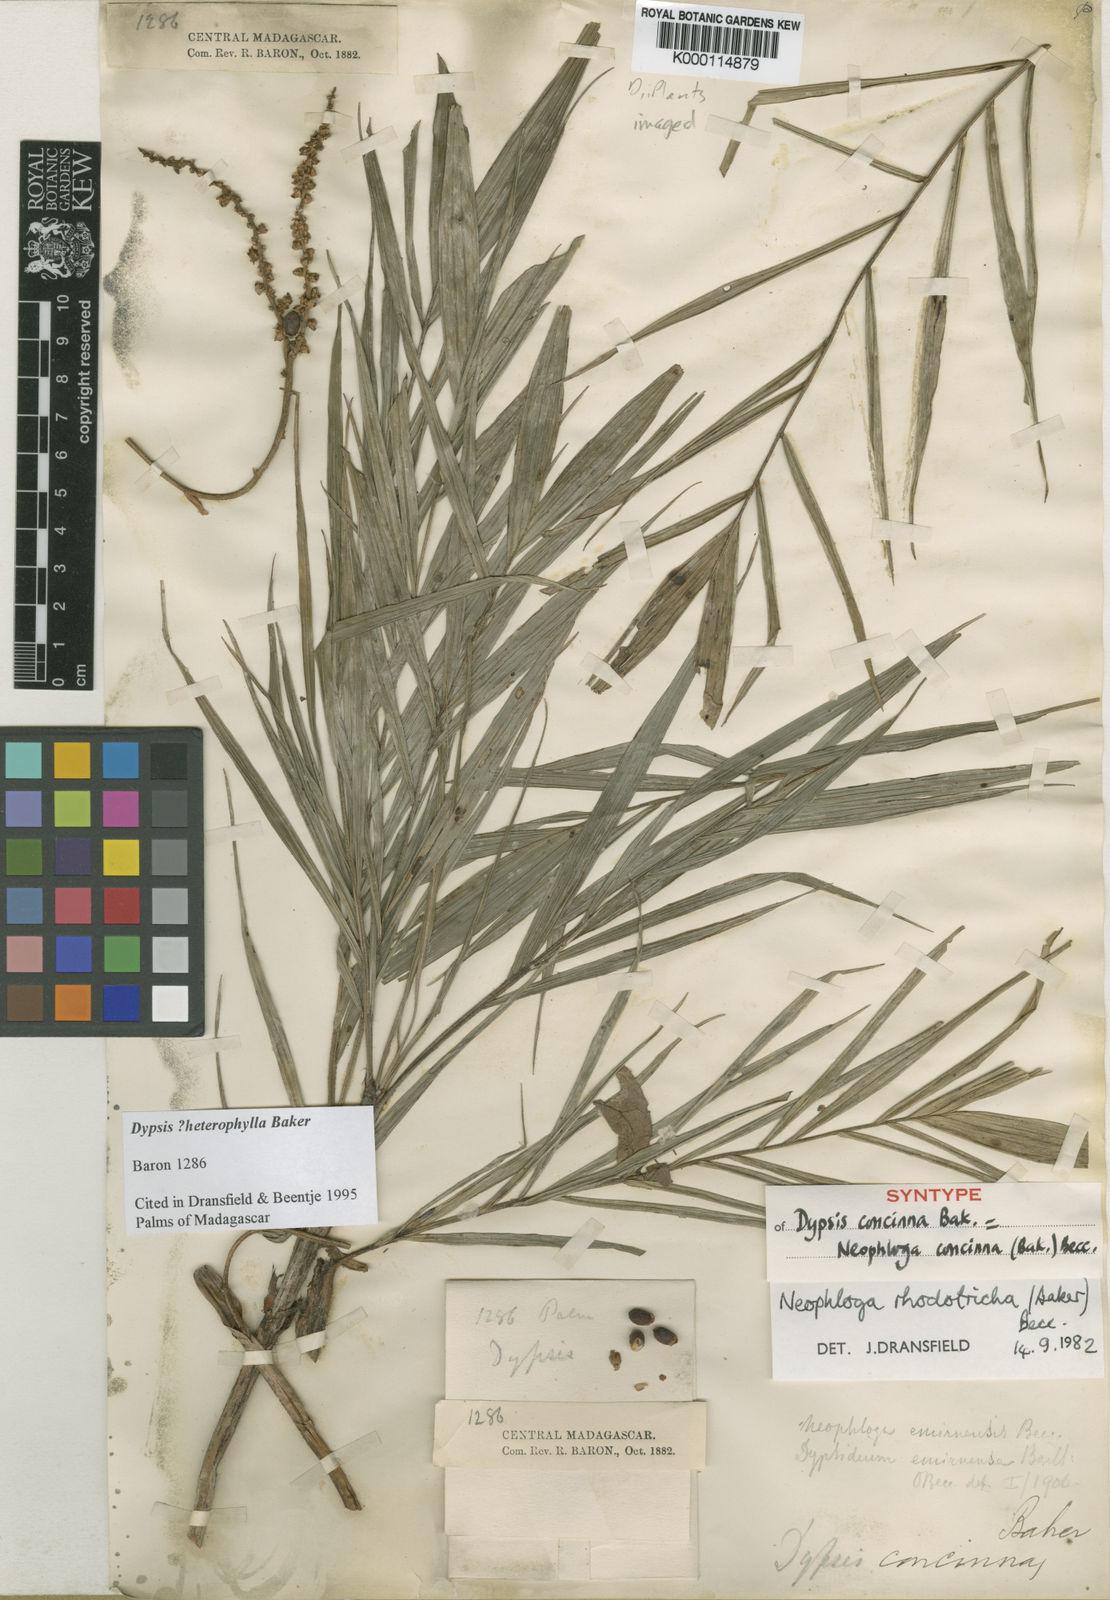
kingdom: Plantae
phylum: Tracheophyta
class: Liliopsida
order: Arecales
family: Arecaceae
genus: Dypsis
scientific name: Dypsis heterophylla
